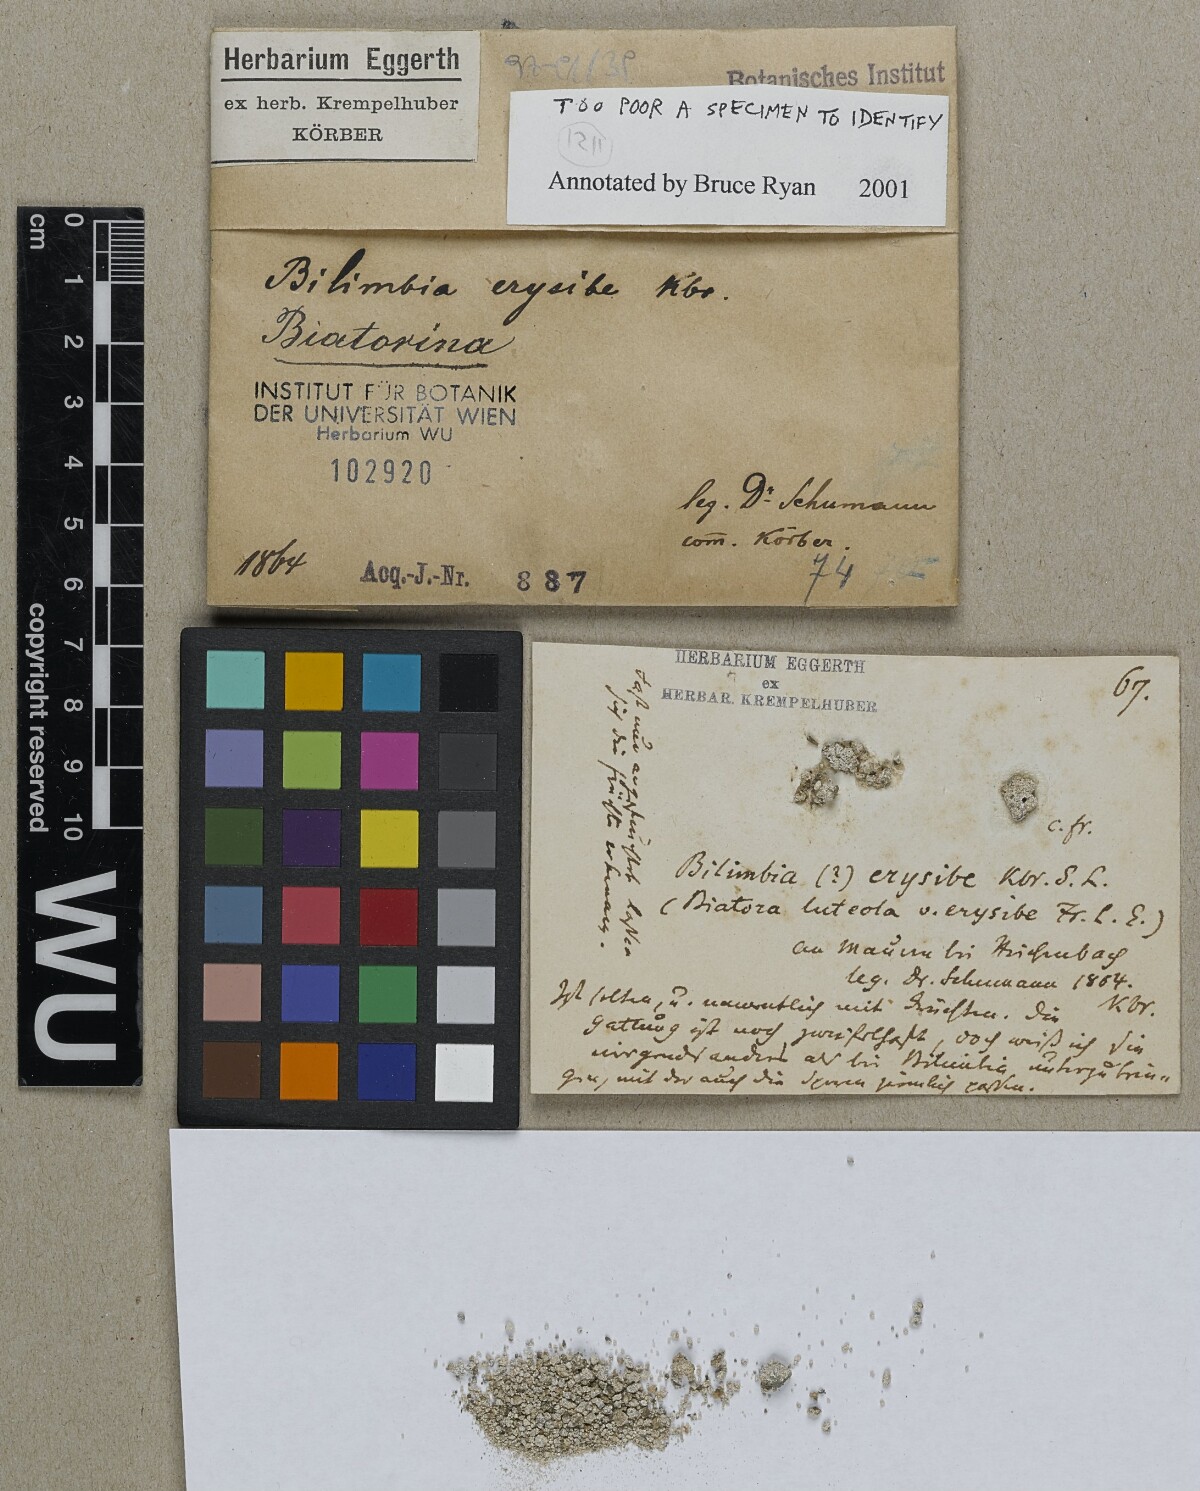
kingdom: Fungi
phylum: Ascomycota
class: Lecanoromycetes
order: Lecanorales
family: Ramalinaceae
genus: Lecania
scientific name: Lecania erysibe
